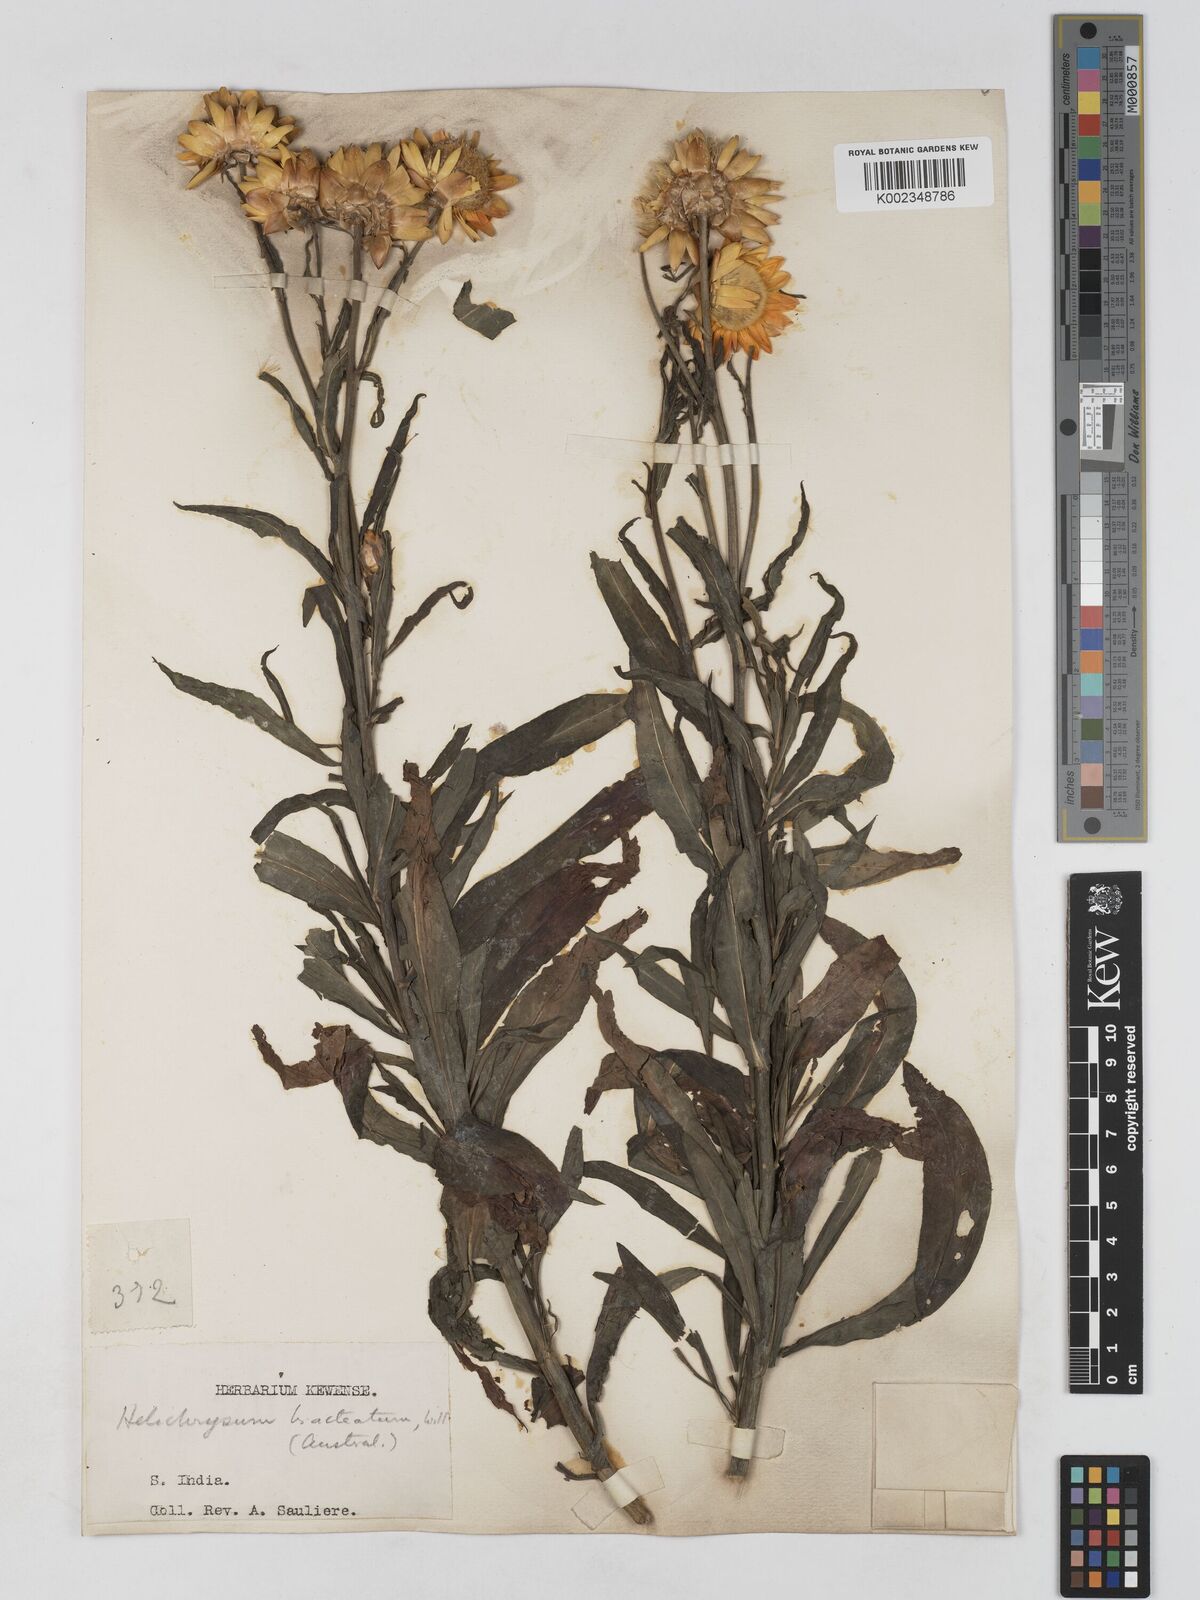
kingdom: Plantae
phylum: Tracheophyta
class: Magnoliopsida
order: Asterales
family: Asteraceae
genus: Xerochrysum
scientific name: Xerochrysum bracteatum
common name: Bracted strawflower
